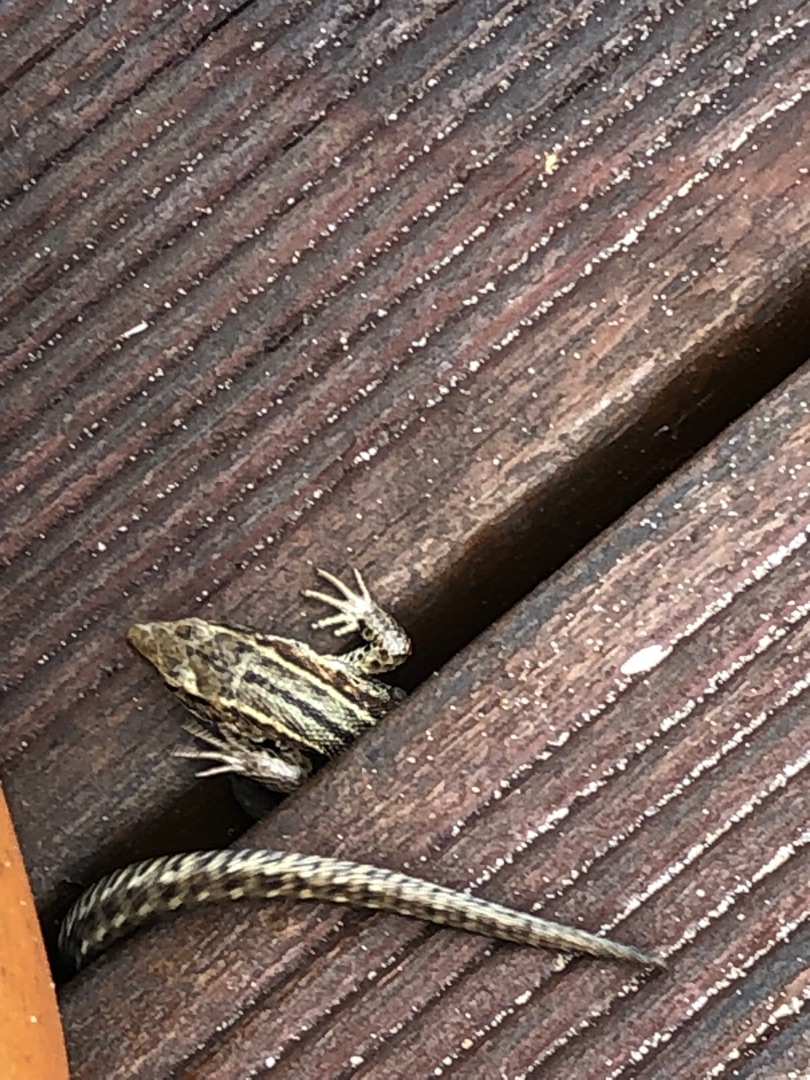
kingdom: Animalia
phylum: Chordata
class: Squamata
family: Lacertidae
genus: Zootoca
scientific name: Zootoca vivipara
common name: Skovfirben
